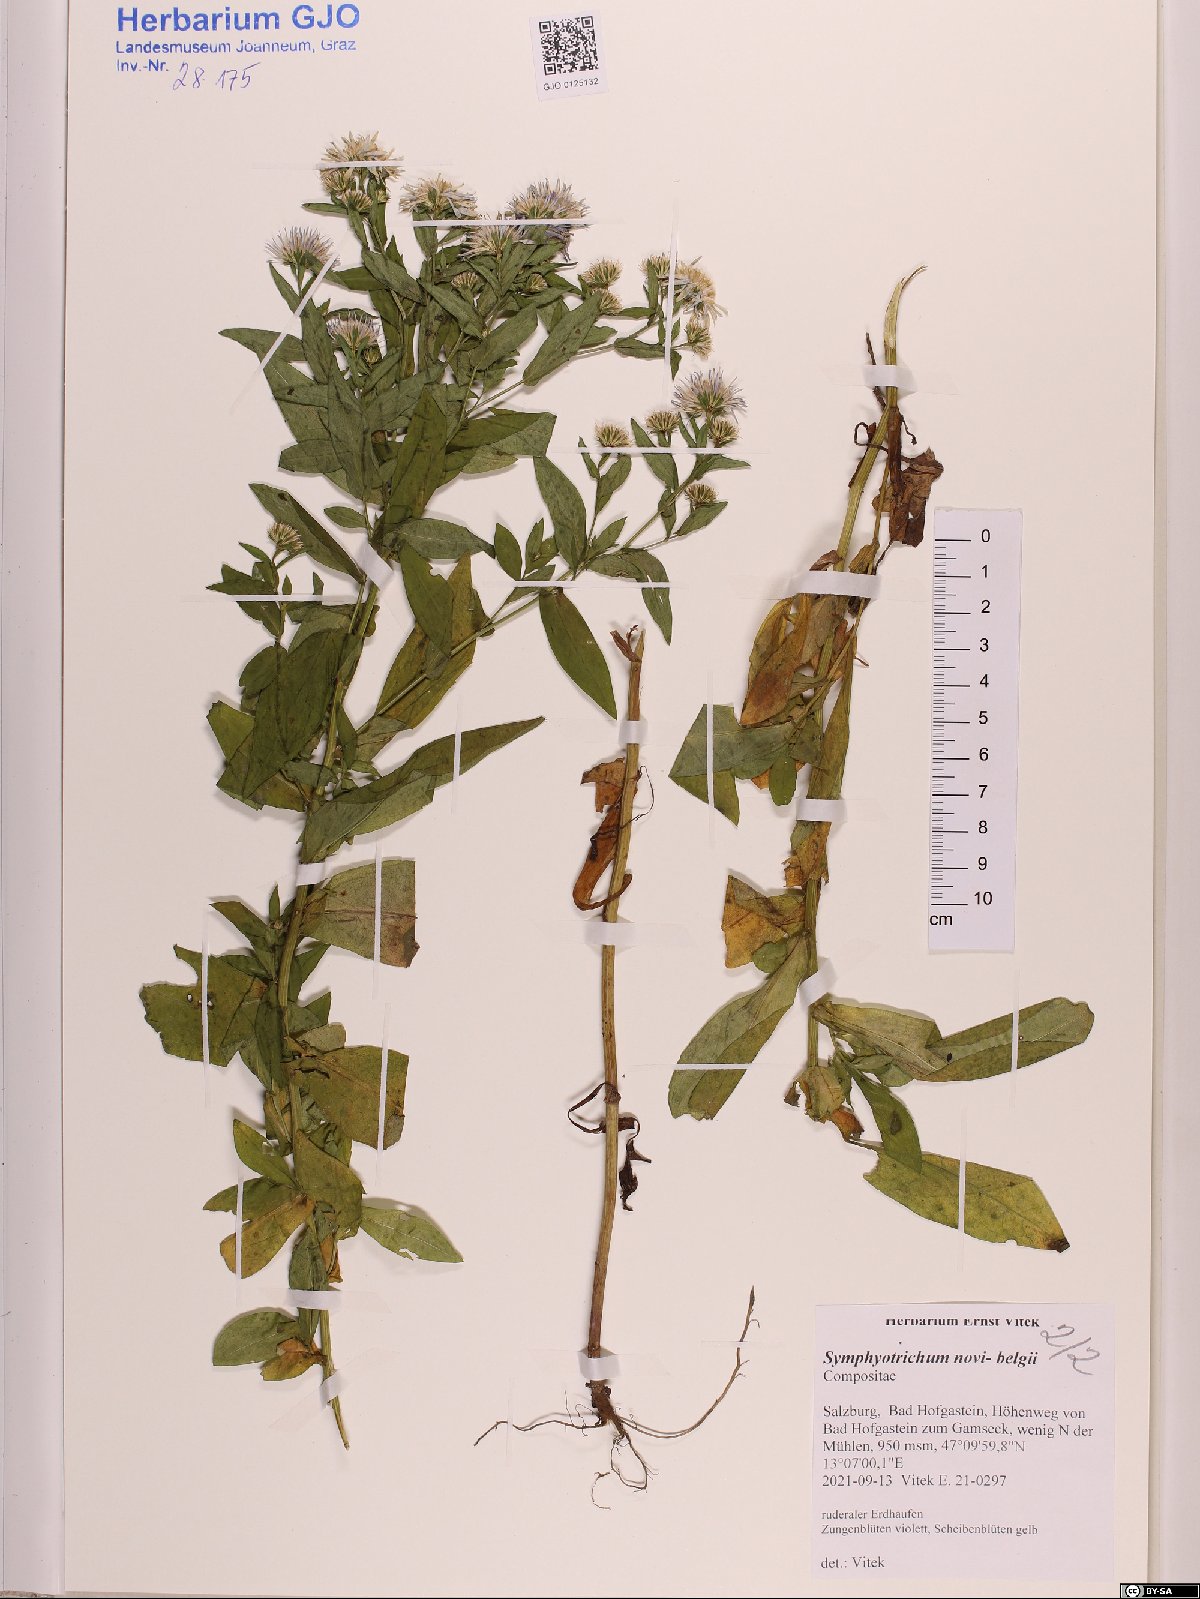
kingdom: Plantae
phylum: Tracheophyta
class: Magnoliopsida
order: Asterales
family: Asteraceae
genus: Symphyotrichum
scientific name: Symphyotrichum novi-belgii
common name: Michaelmas daisy
